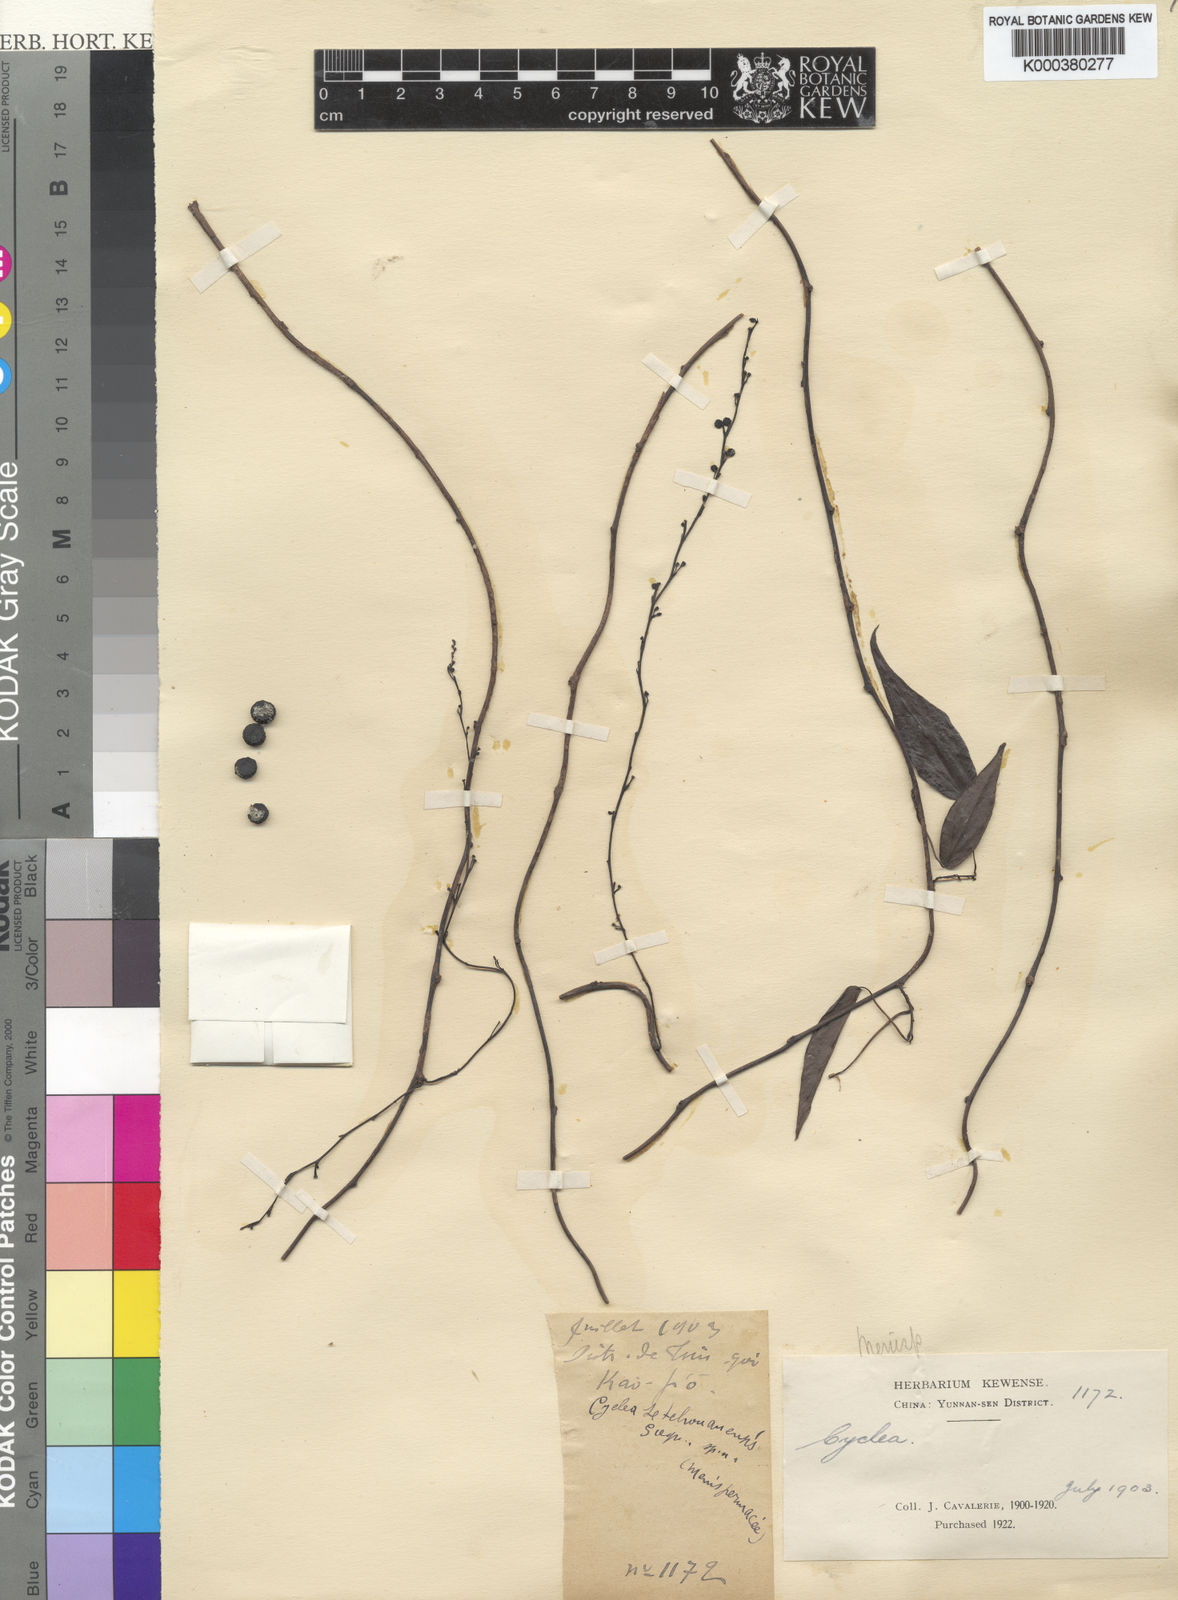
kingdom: Plantae
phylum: Tracheophyta
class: Magnoliopsida
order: Ranunculales
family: Menispermaceae
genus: Cyclea
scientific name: Cyclea sutchuenensis
